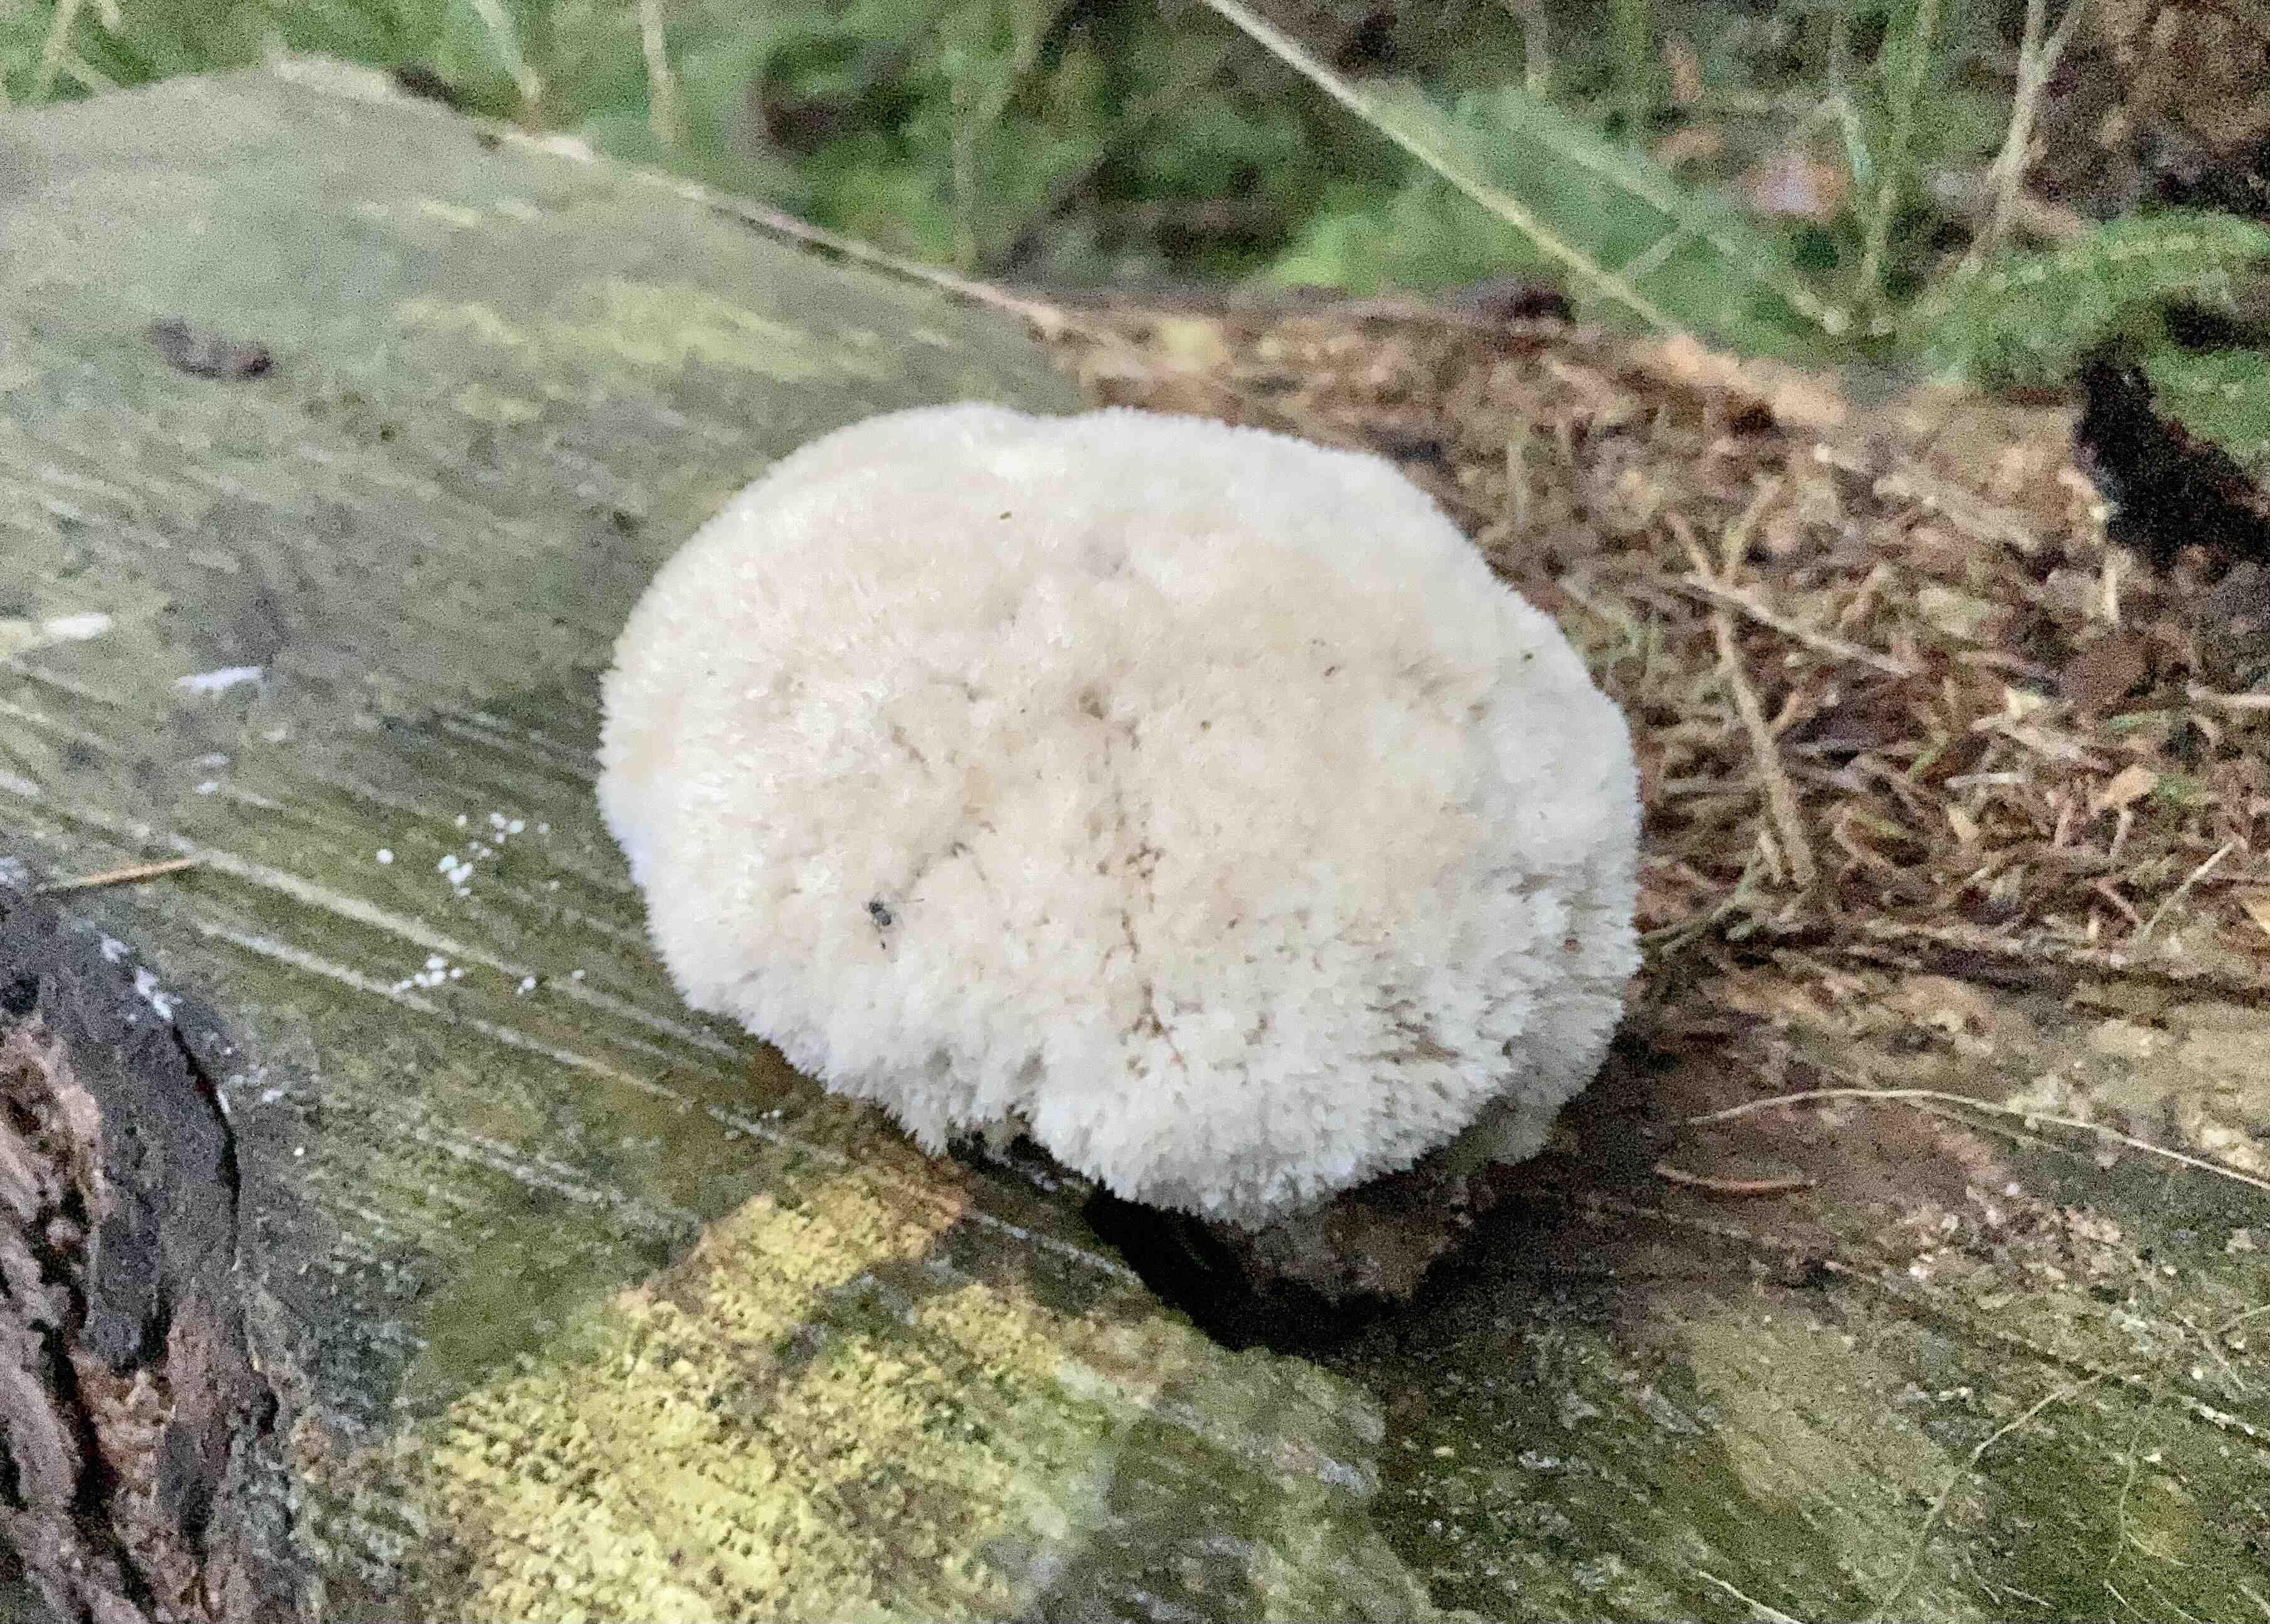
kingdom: Fungi
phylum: Basidiomycota
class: Agaricomycetes
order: Polyporales
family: Dacryobolaceae
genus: Postia
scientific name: Postia ptychogaster
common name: støvende kødporesvamp
